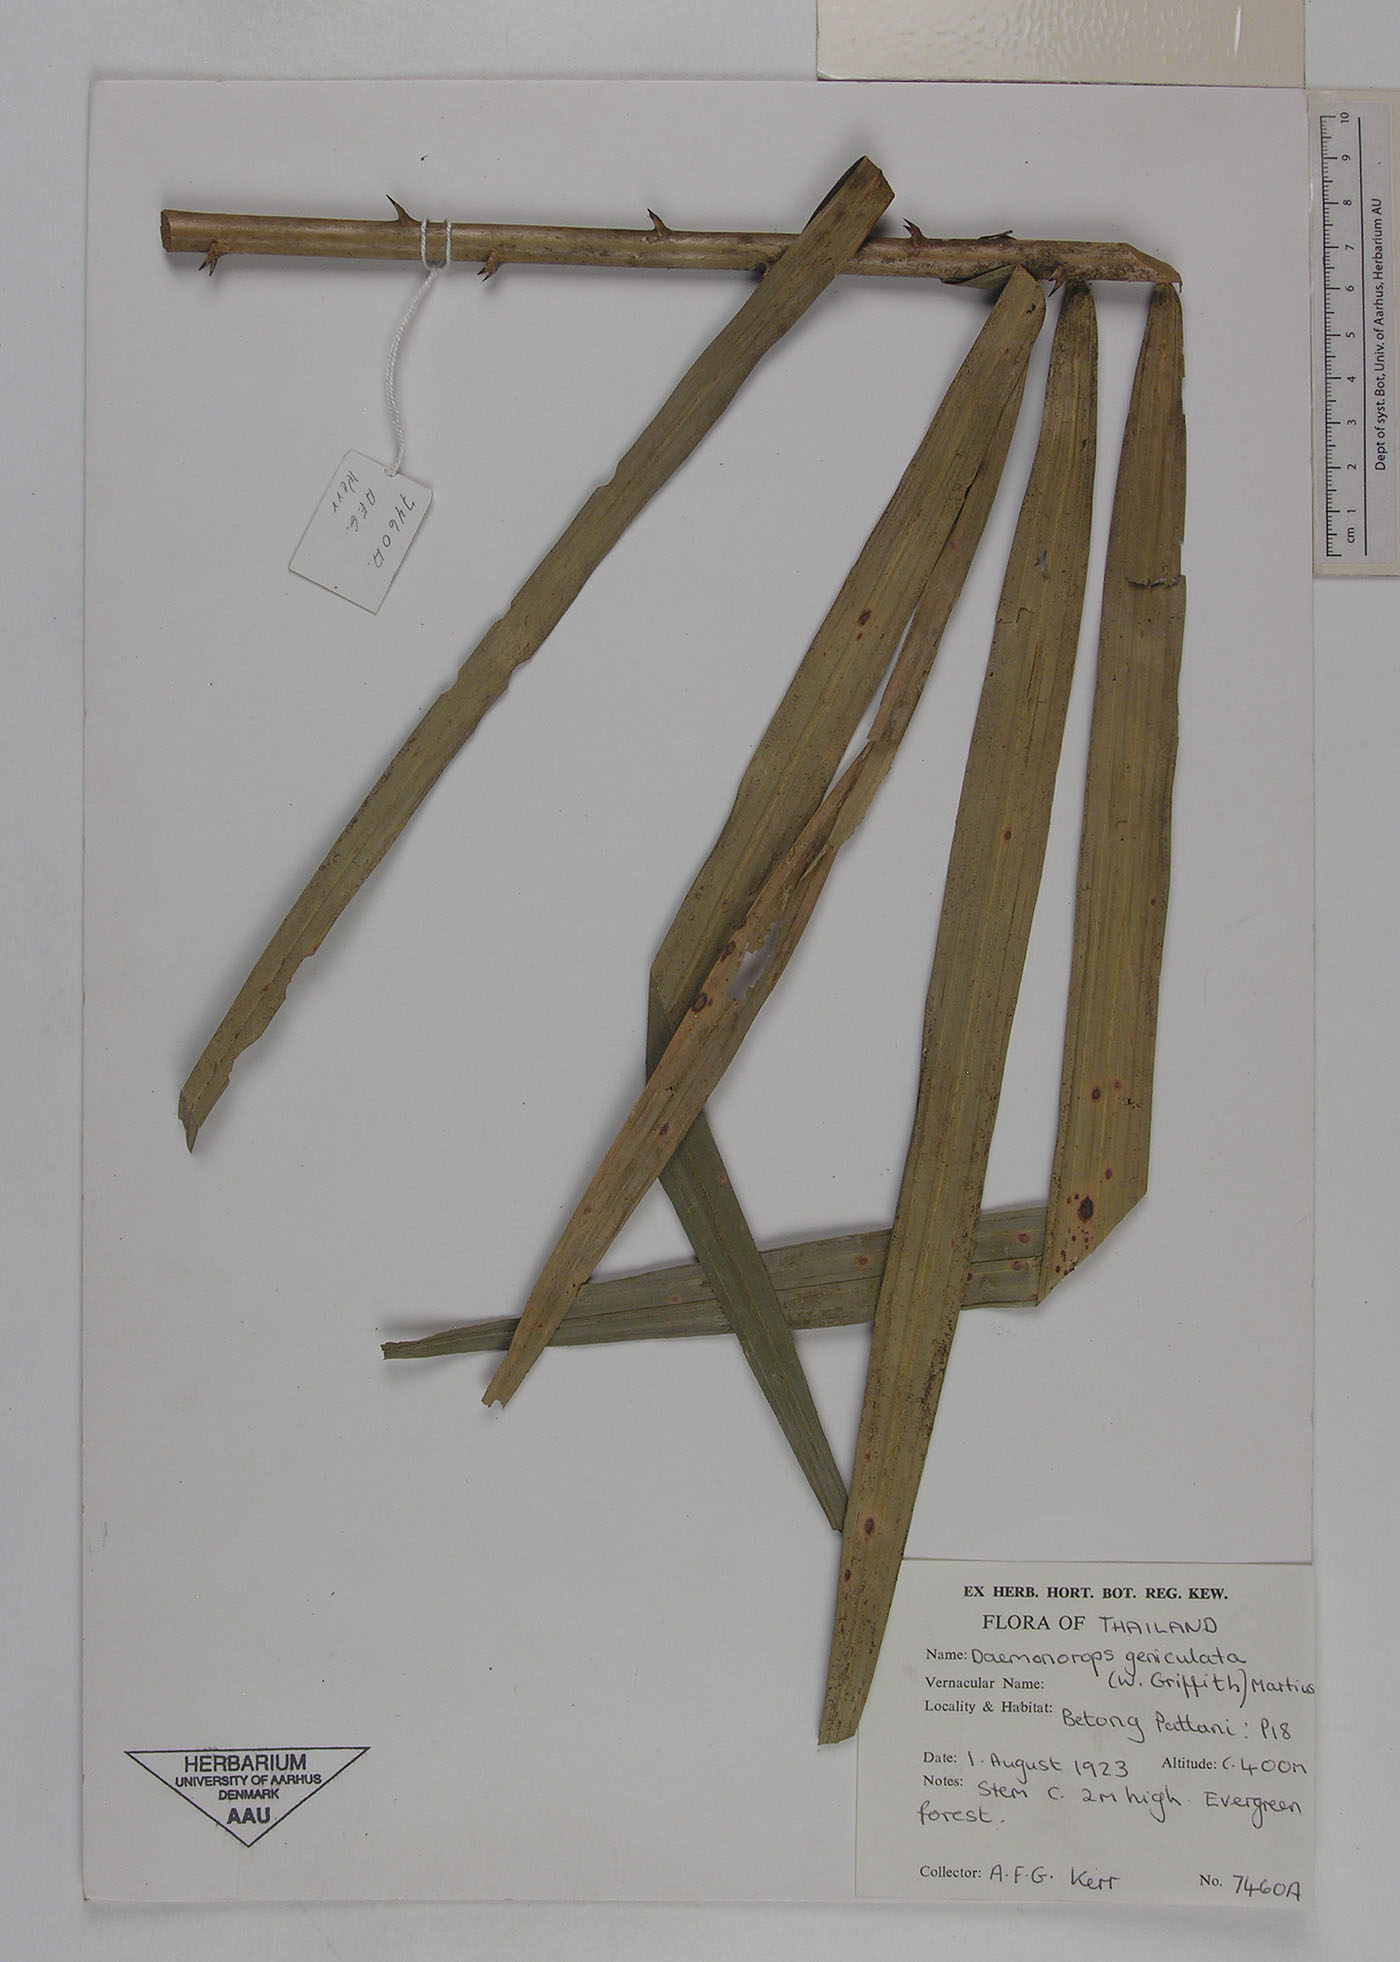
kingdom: Plantae
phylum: Tracheophyta
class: Liliopsida
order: Arecales
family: Arecaceae
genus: Calamus
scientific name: Calamus geniculatus
